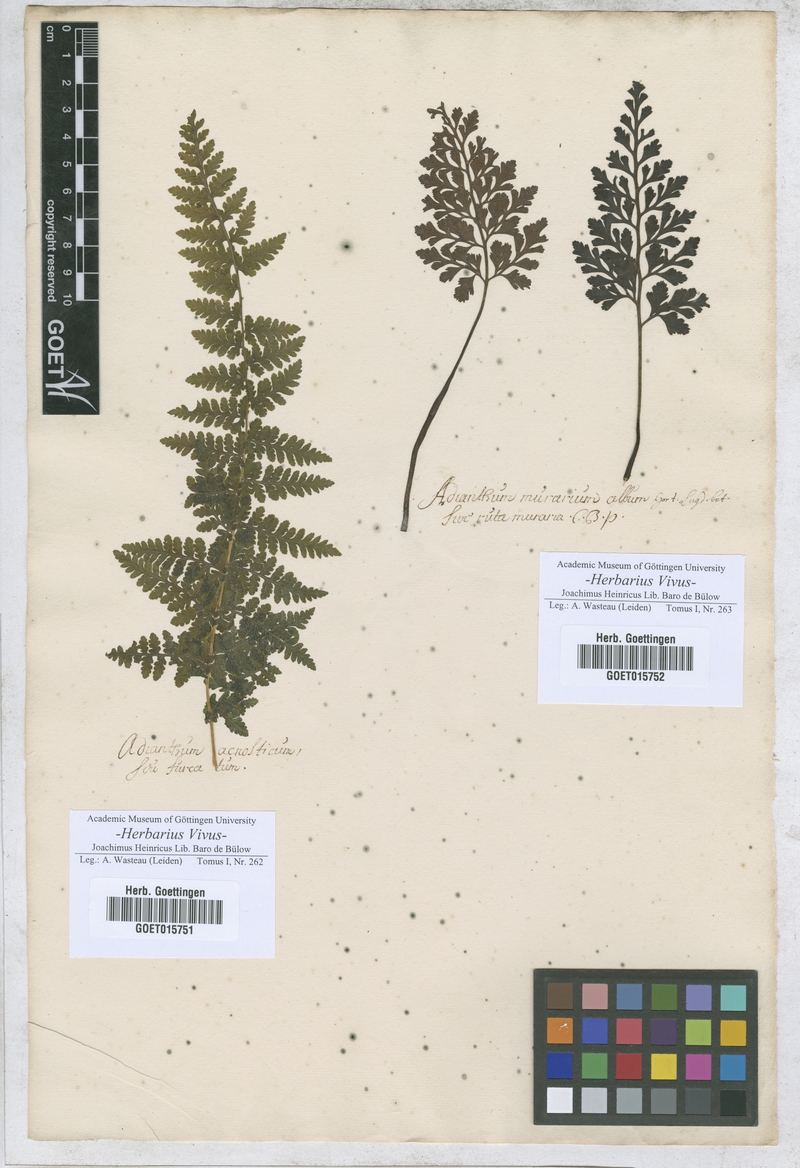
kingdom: Plantae
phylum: Tracheophyta
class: Polypodiopsida
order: Polypodiales
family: Pteridaceae
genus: Adiantum
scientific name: Adiantum
